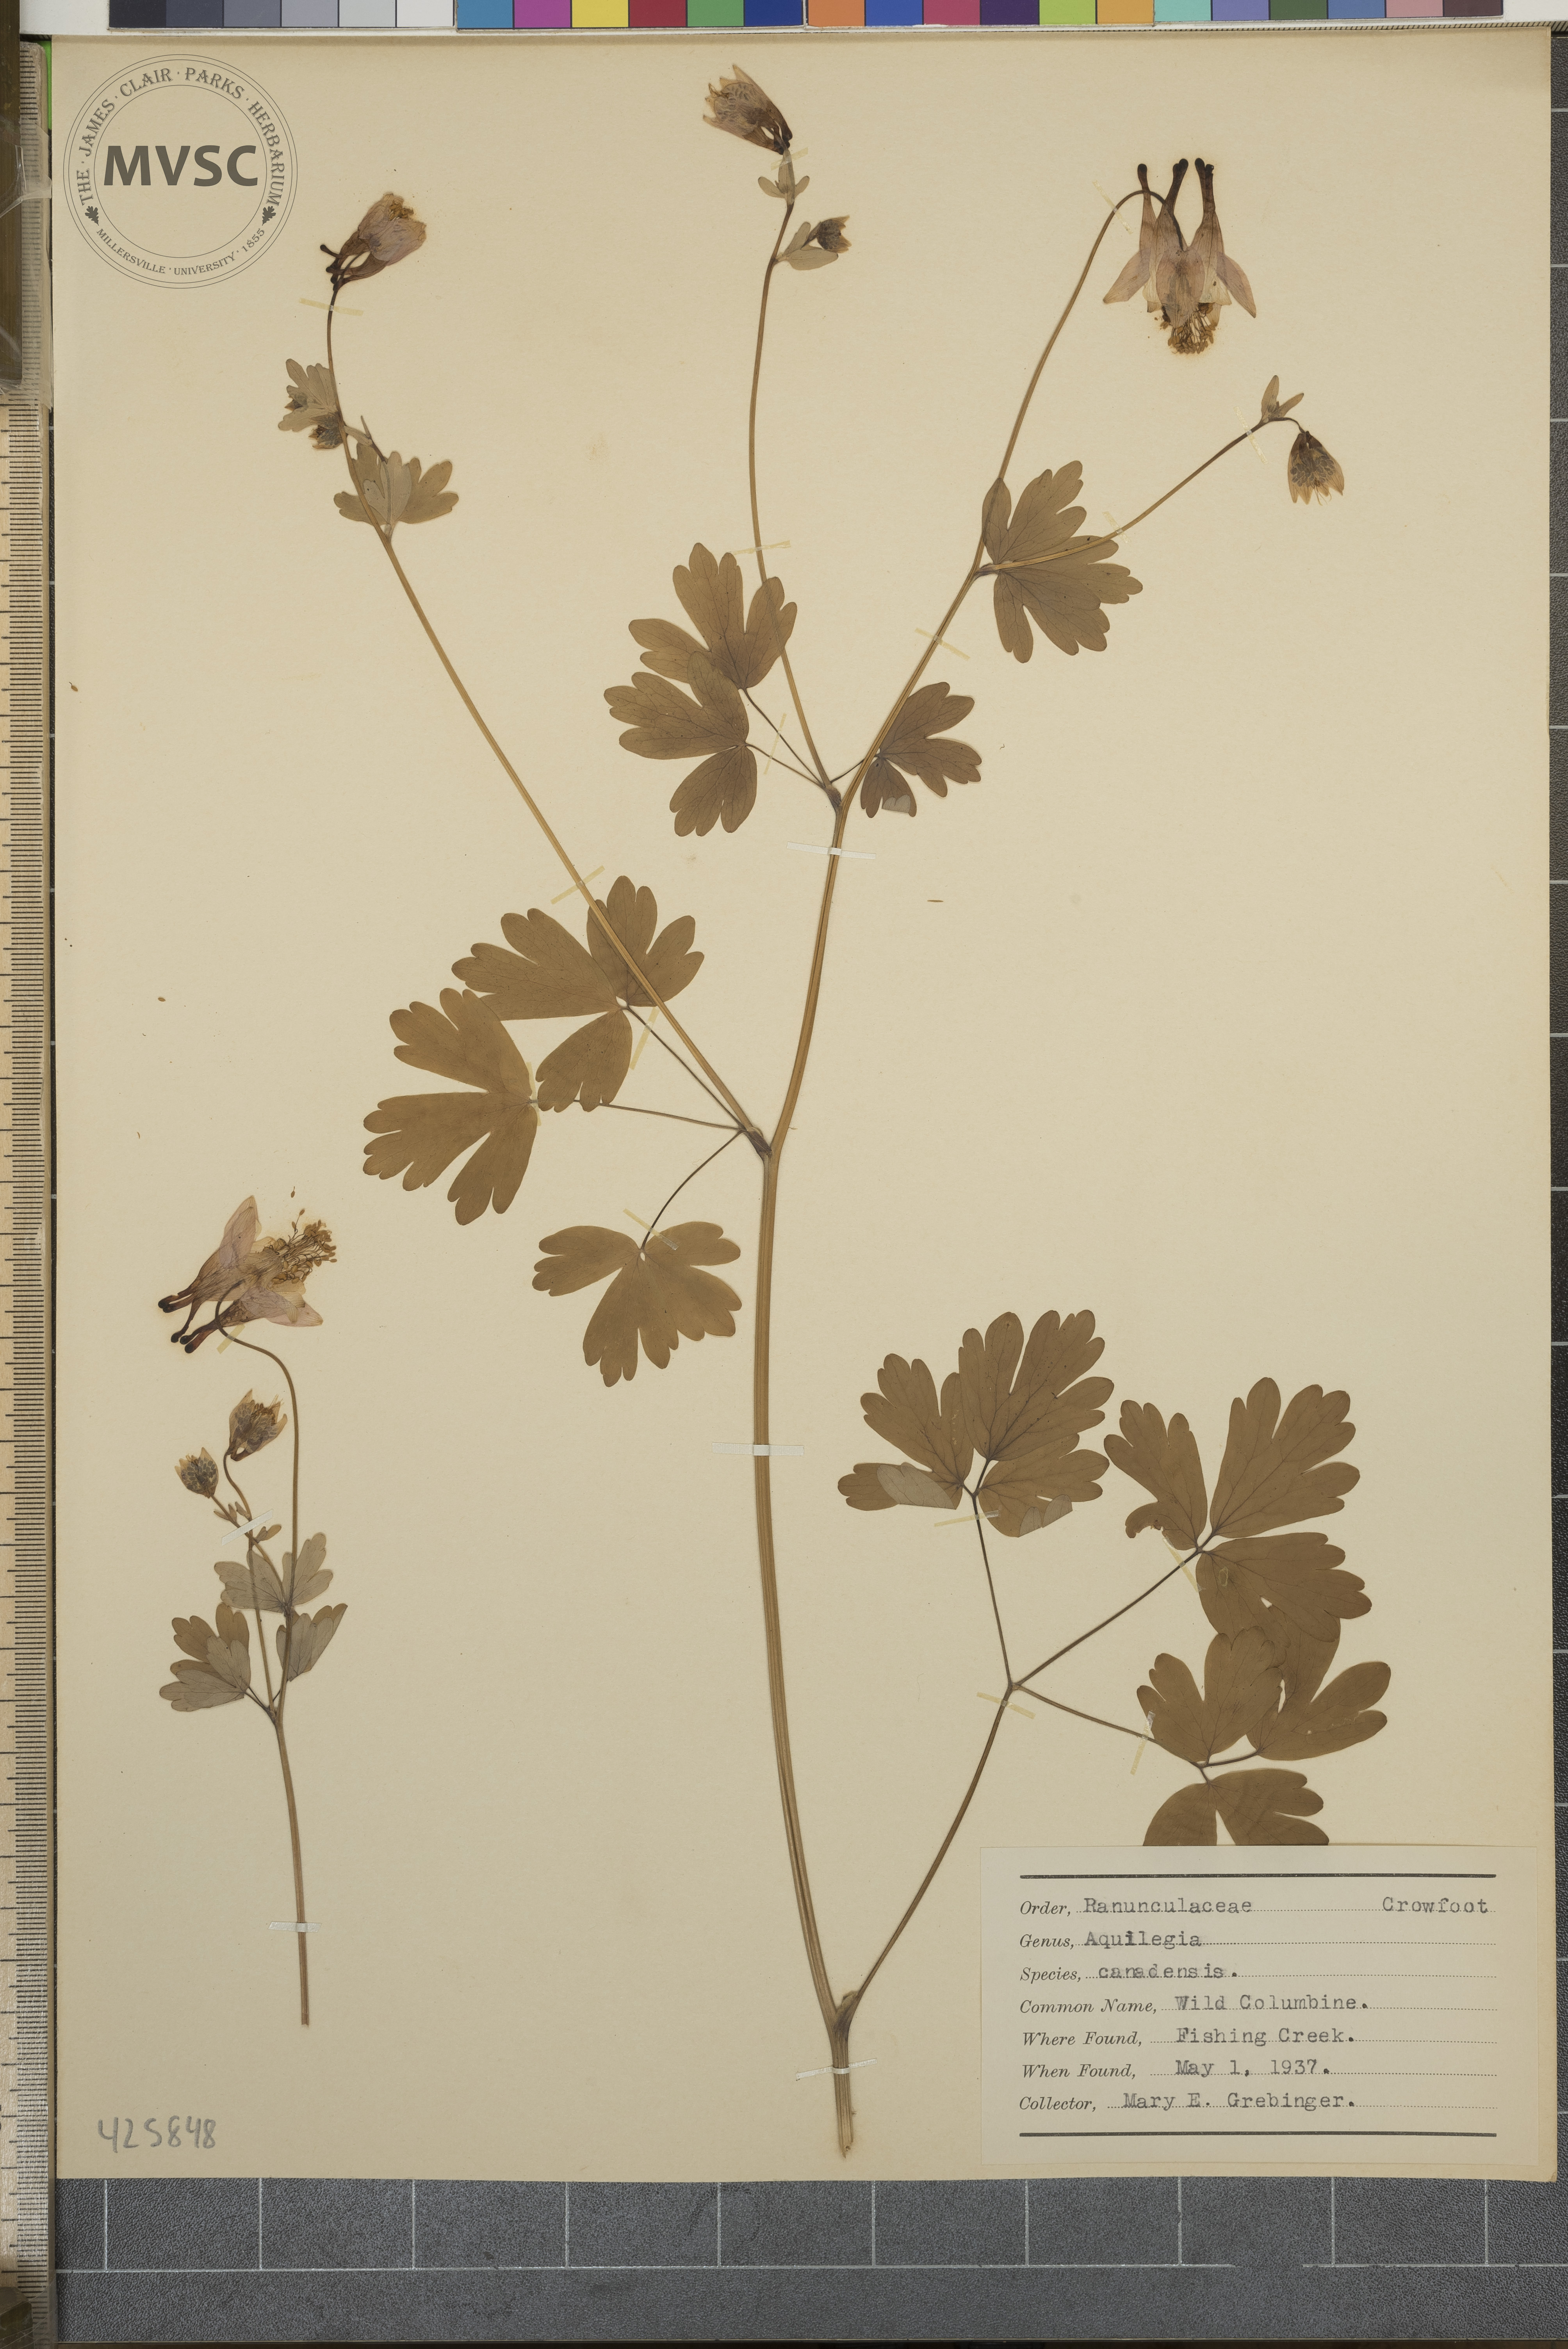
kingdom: Plantae
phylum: Tracheophyta
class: Magnoliopsida
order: Ranunculales
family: Ranunculaceae
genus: Aquilegia
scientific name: Aquilegia canadensis
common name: Wild Columbine
